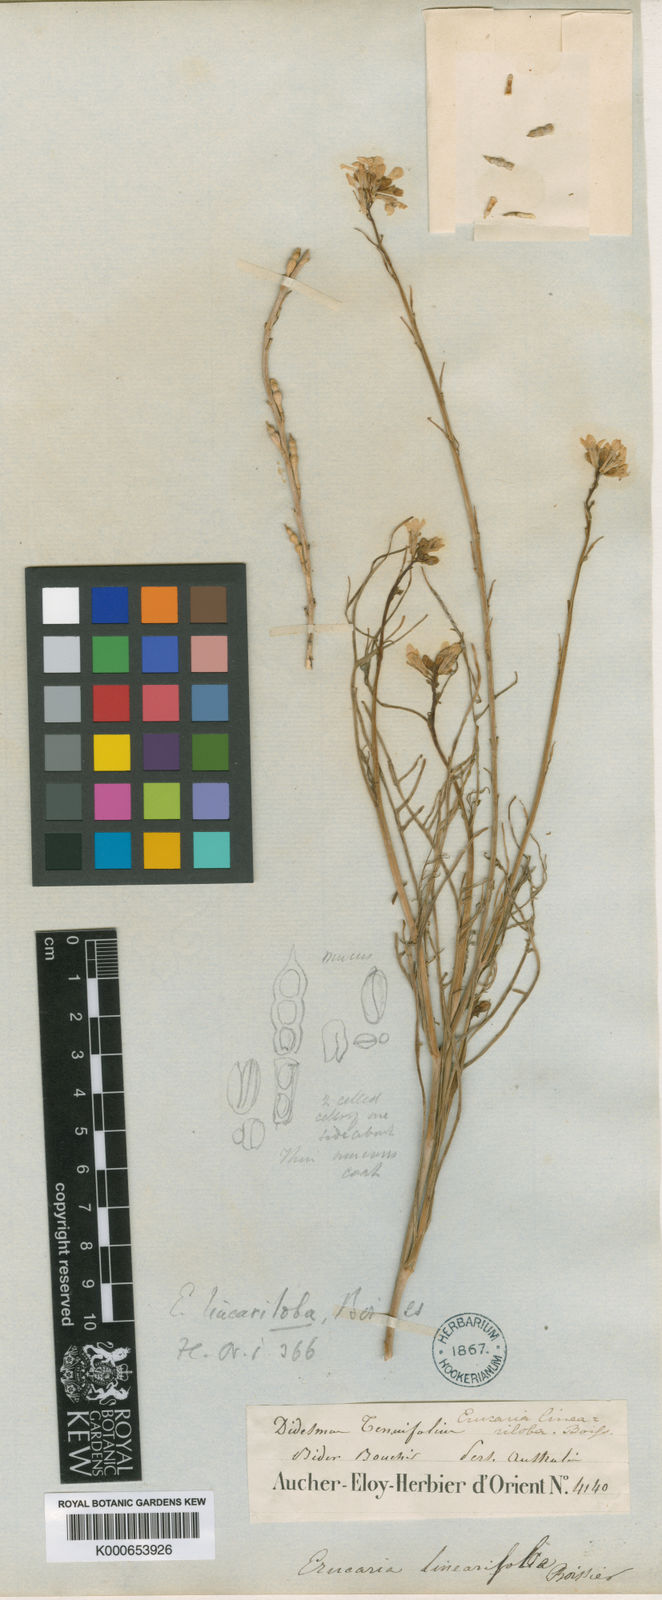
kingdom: Plantae
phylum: Tracheophyta
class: Magnoliopsida
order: Brassicales
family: Brassicaceae
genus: Erucaria
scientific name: Erucaria hispanica
